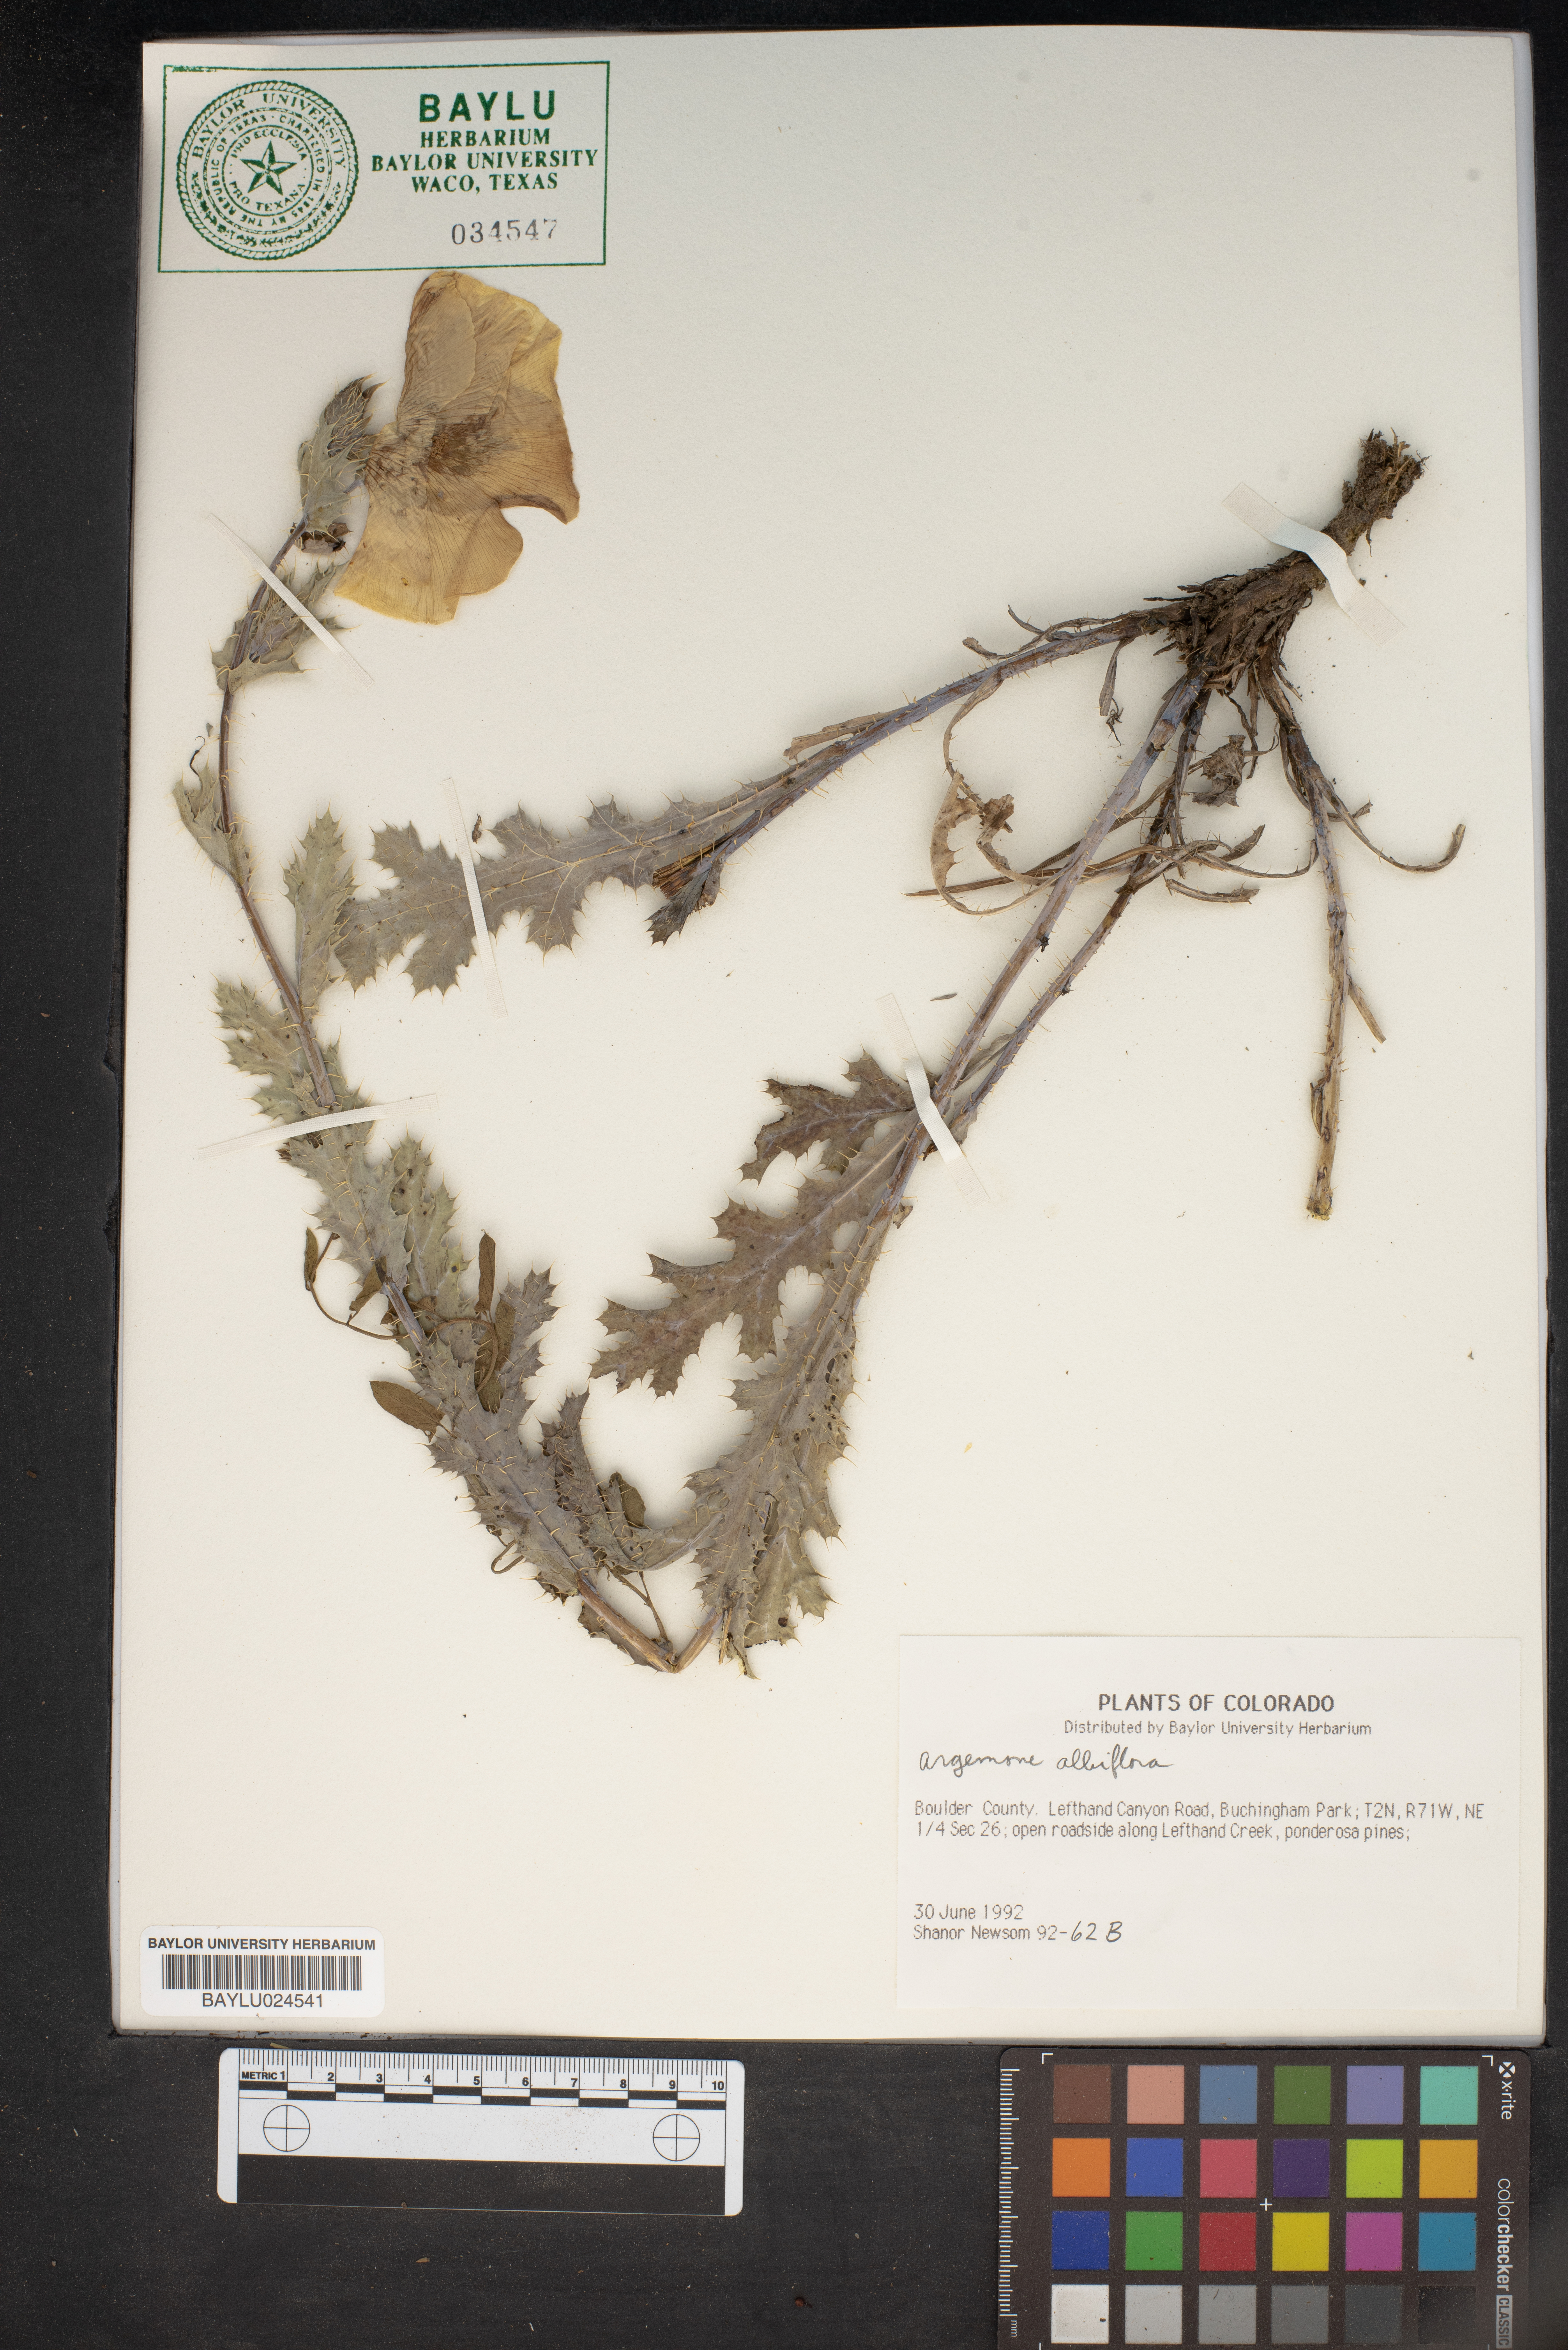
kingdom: Plantae
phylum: Tracheophyta
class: Magnoliopsida
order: Ranunculales
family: Papaveraceae
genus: Argemone
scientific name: Argemone albiflora
